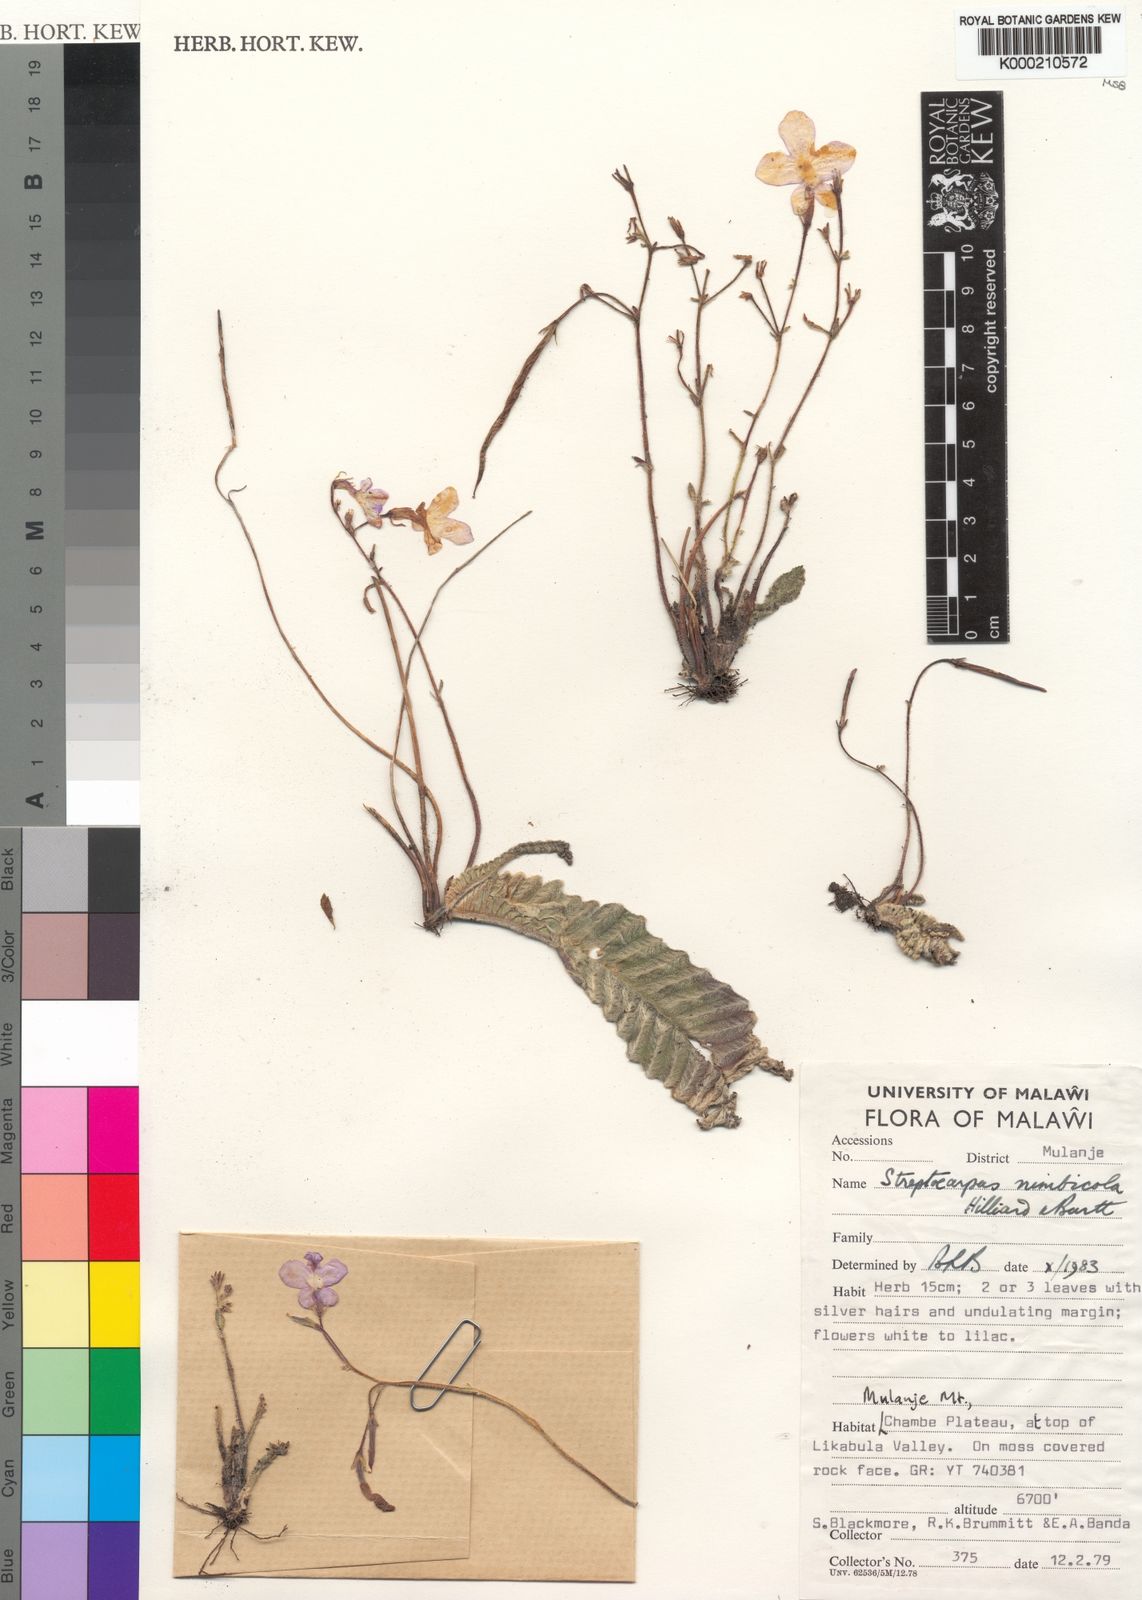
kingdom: Plantae
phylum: Tracheophyta
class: Magnoliopsida
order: Lamiales
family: Gesneriaceae
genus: Streptocarpus
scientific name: Streptocarpus nimbicola
